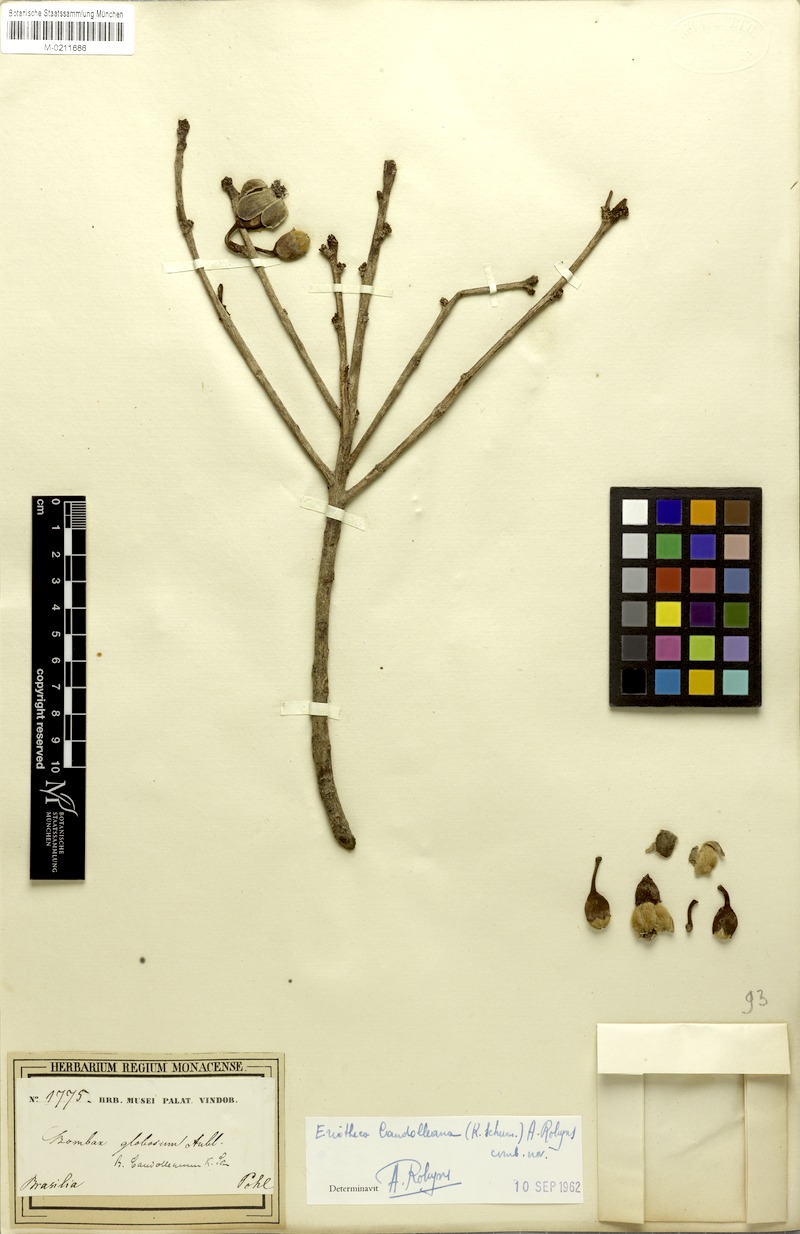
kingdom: Plantae
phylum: Tracheophyta
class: Magnoliopsida
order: Malvales
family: Malvaceae
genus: Eriotheca
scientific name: Eriotheca candolleana
